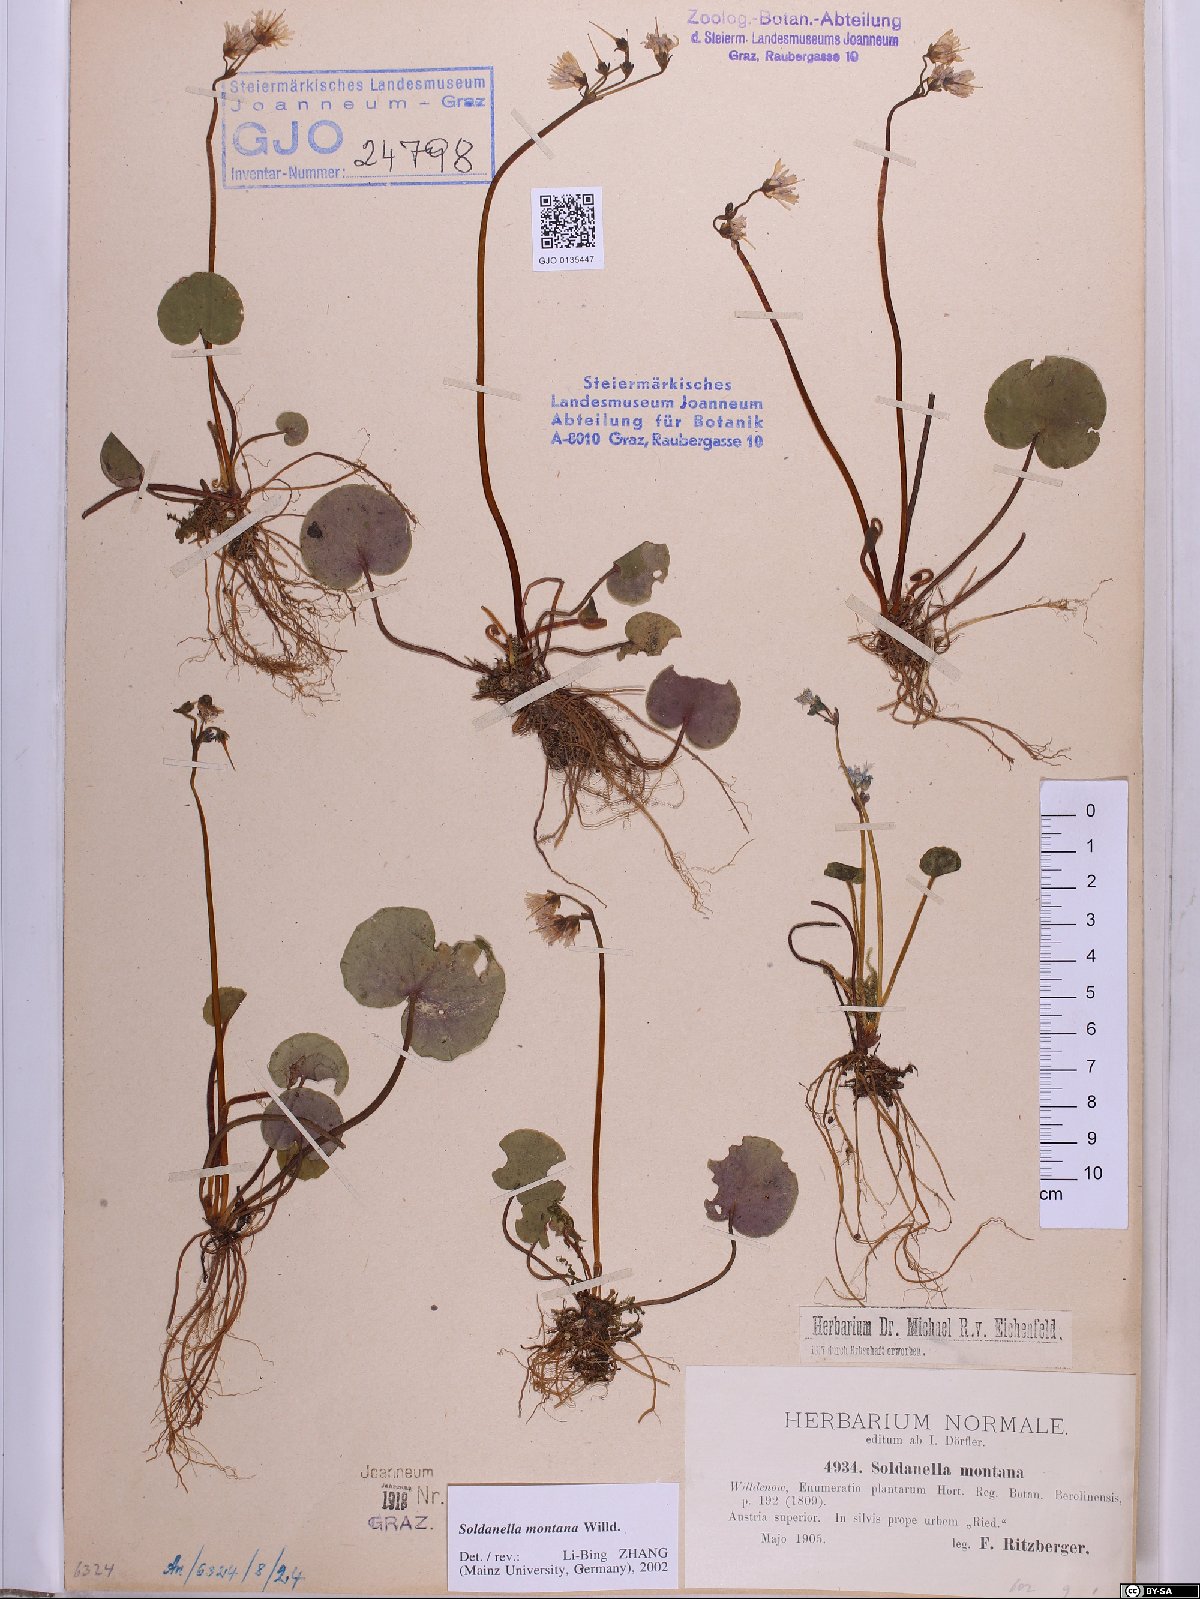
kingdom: Plantae
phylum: Tracheophyta
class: Magnoliopsida
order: Ericales
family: Primulaceae
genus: Soldanella
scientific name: Soldanella montana
